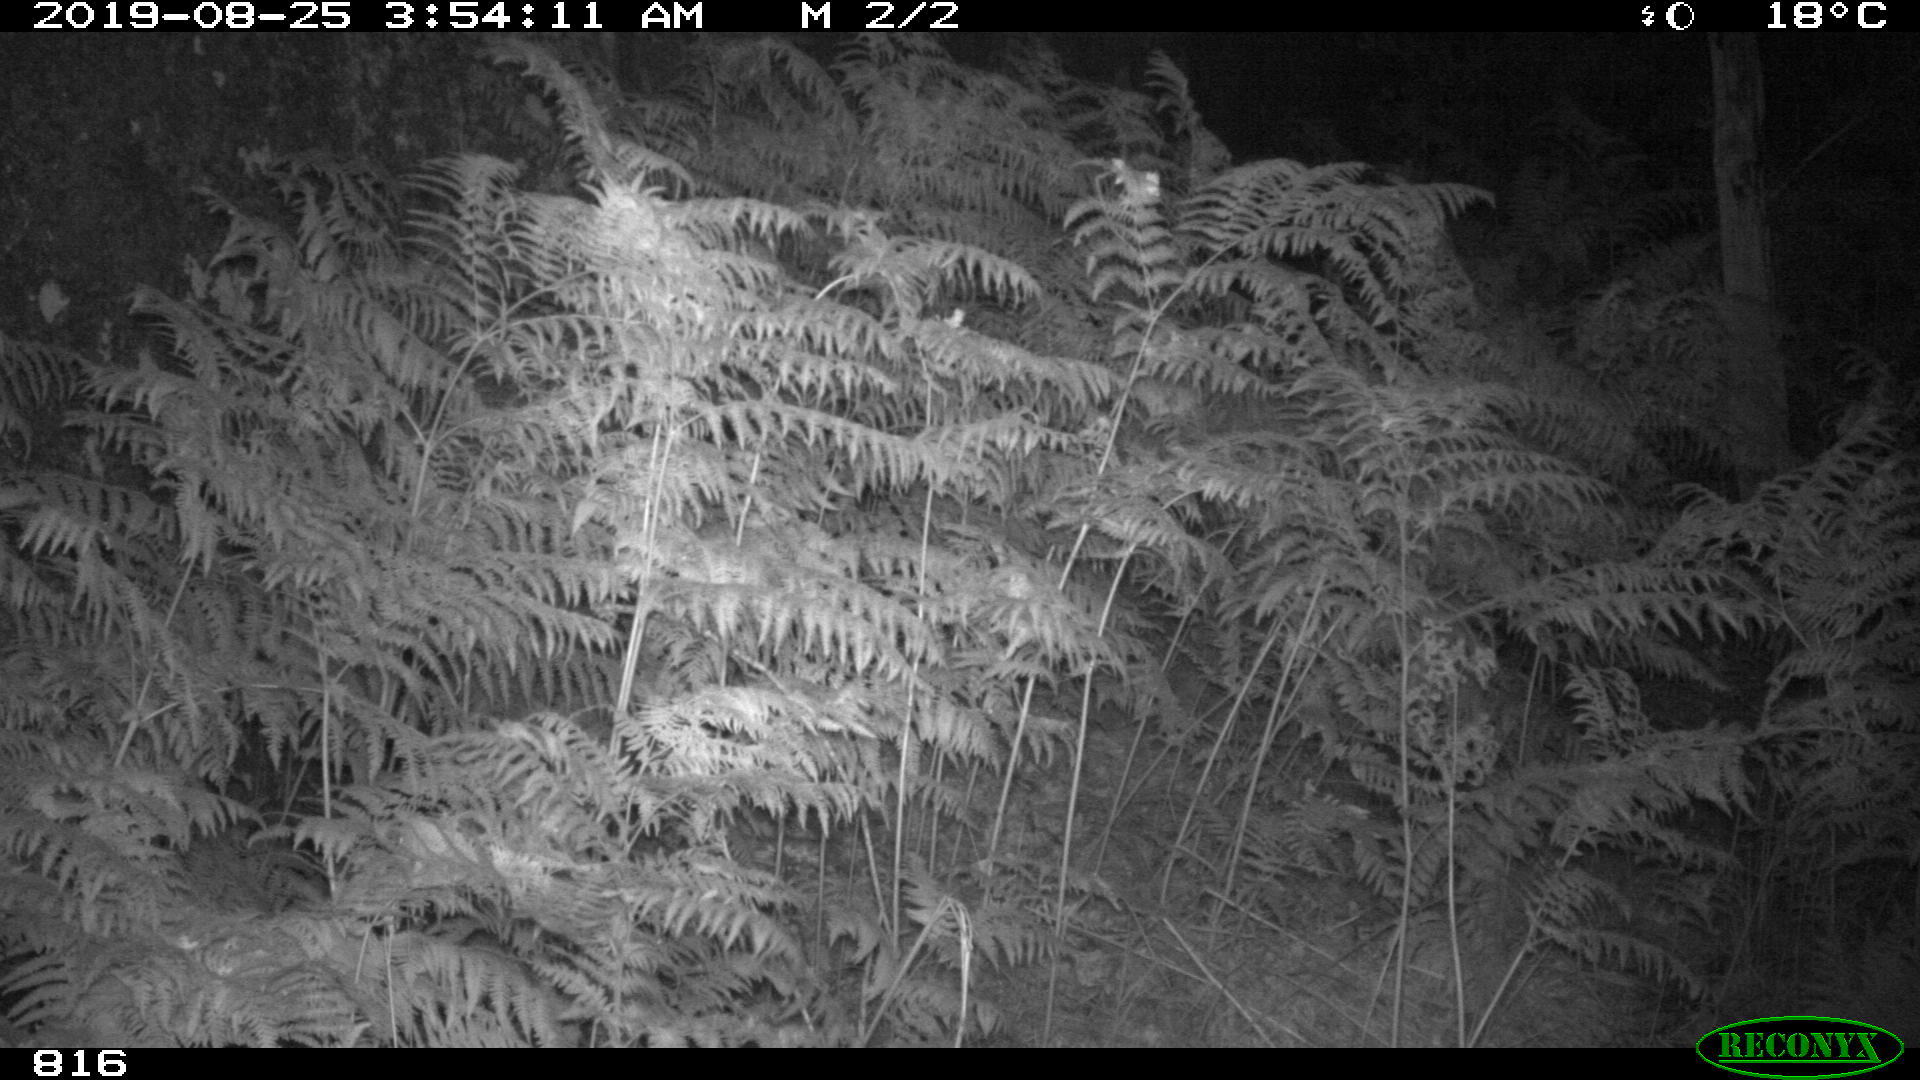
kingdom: Animalia
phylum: Chordata
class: Mammalia
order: Perissodactyla
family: Equidae
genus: Equus
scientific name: Equus caballus
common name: Horse
